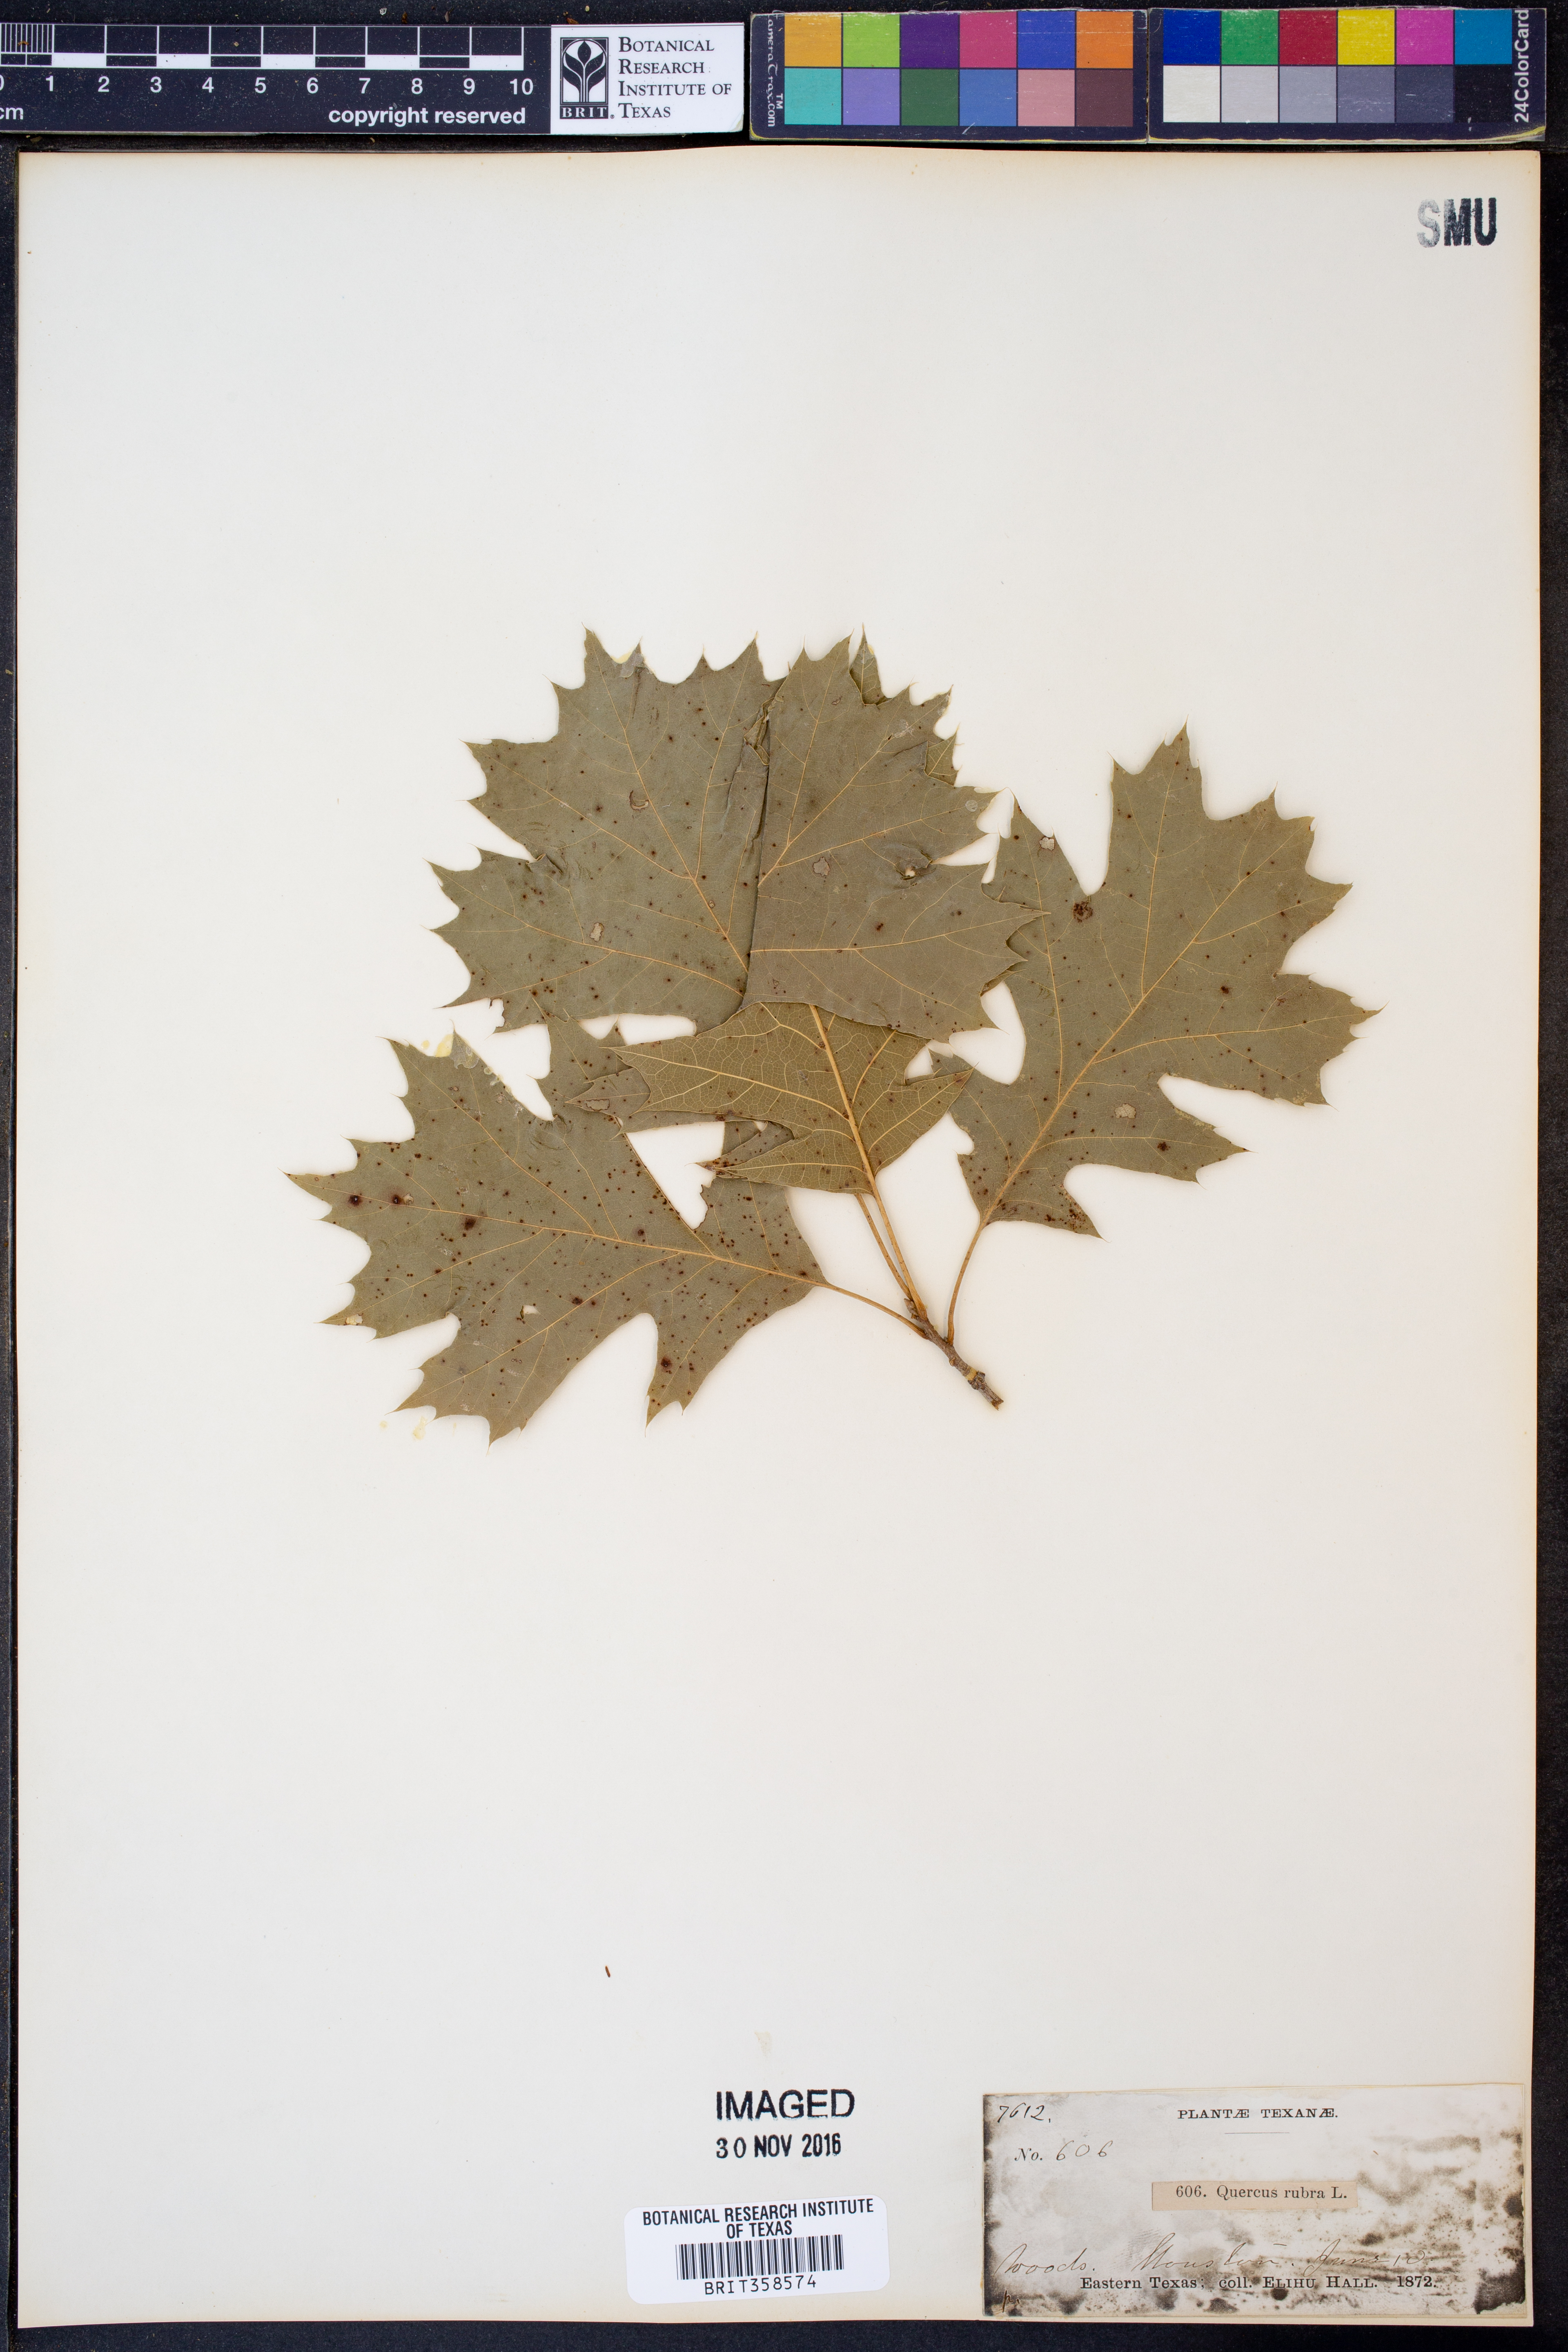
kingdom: Plantae
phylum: Tracheophyta
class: Magnoliopsida
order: Fagales
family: Fagaceae
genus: Quercus
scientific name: Quercus rubra
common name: Red oak
